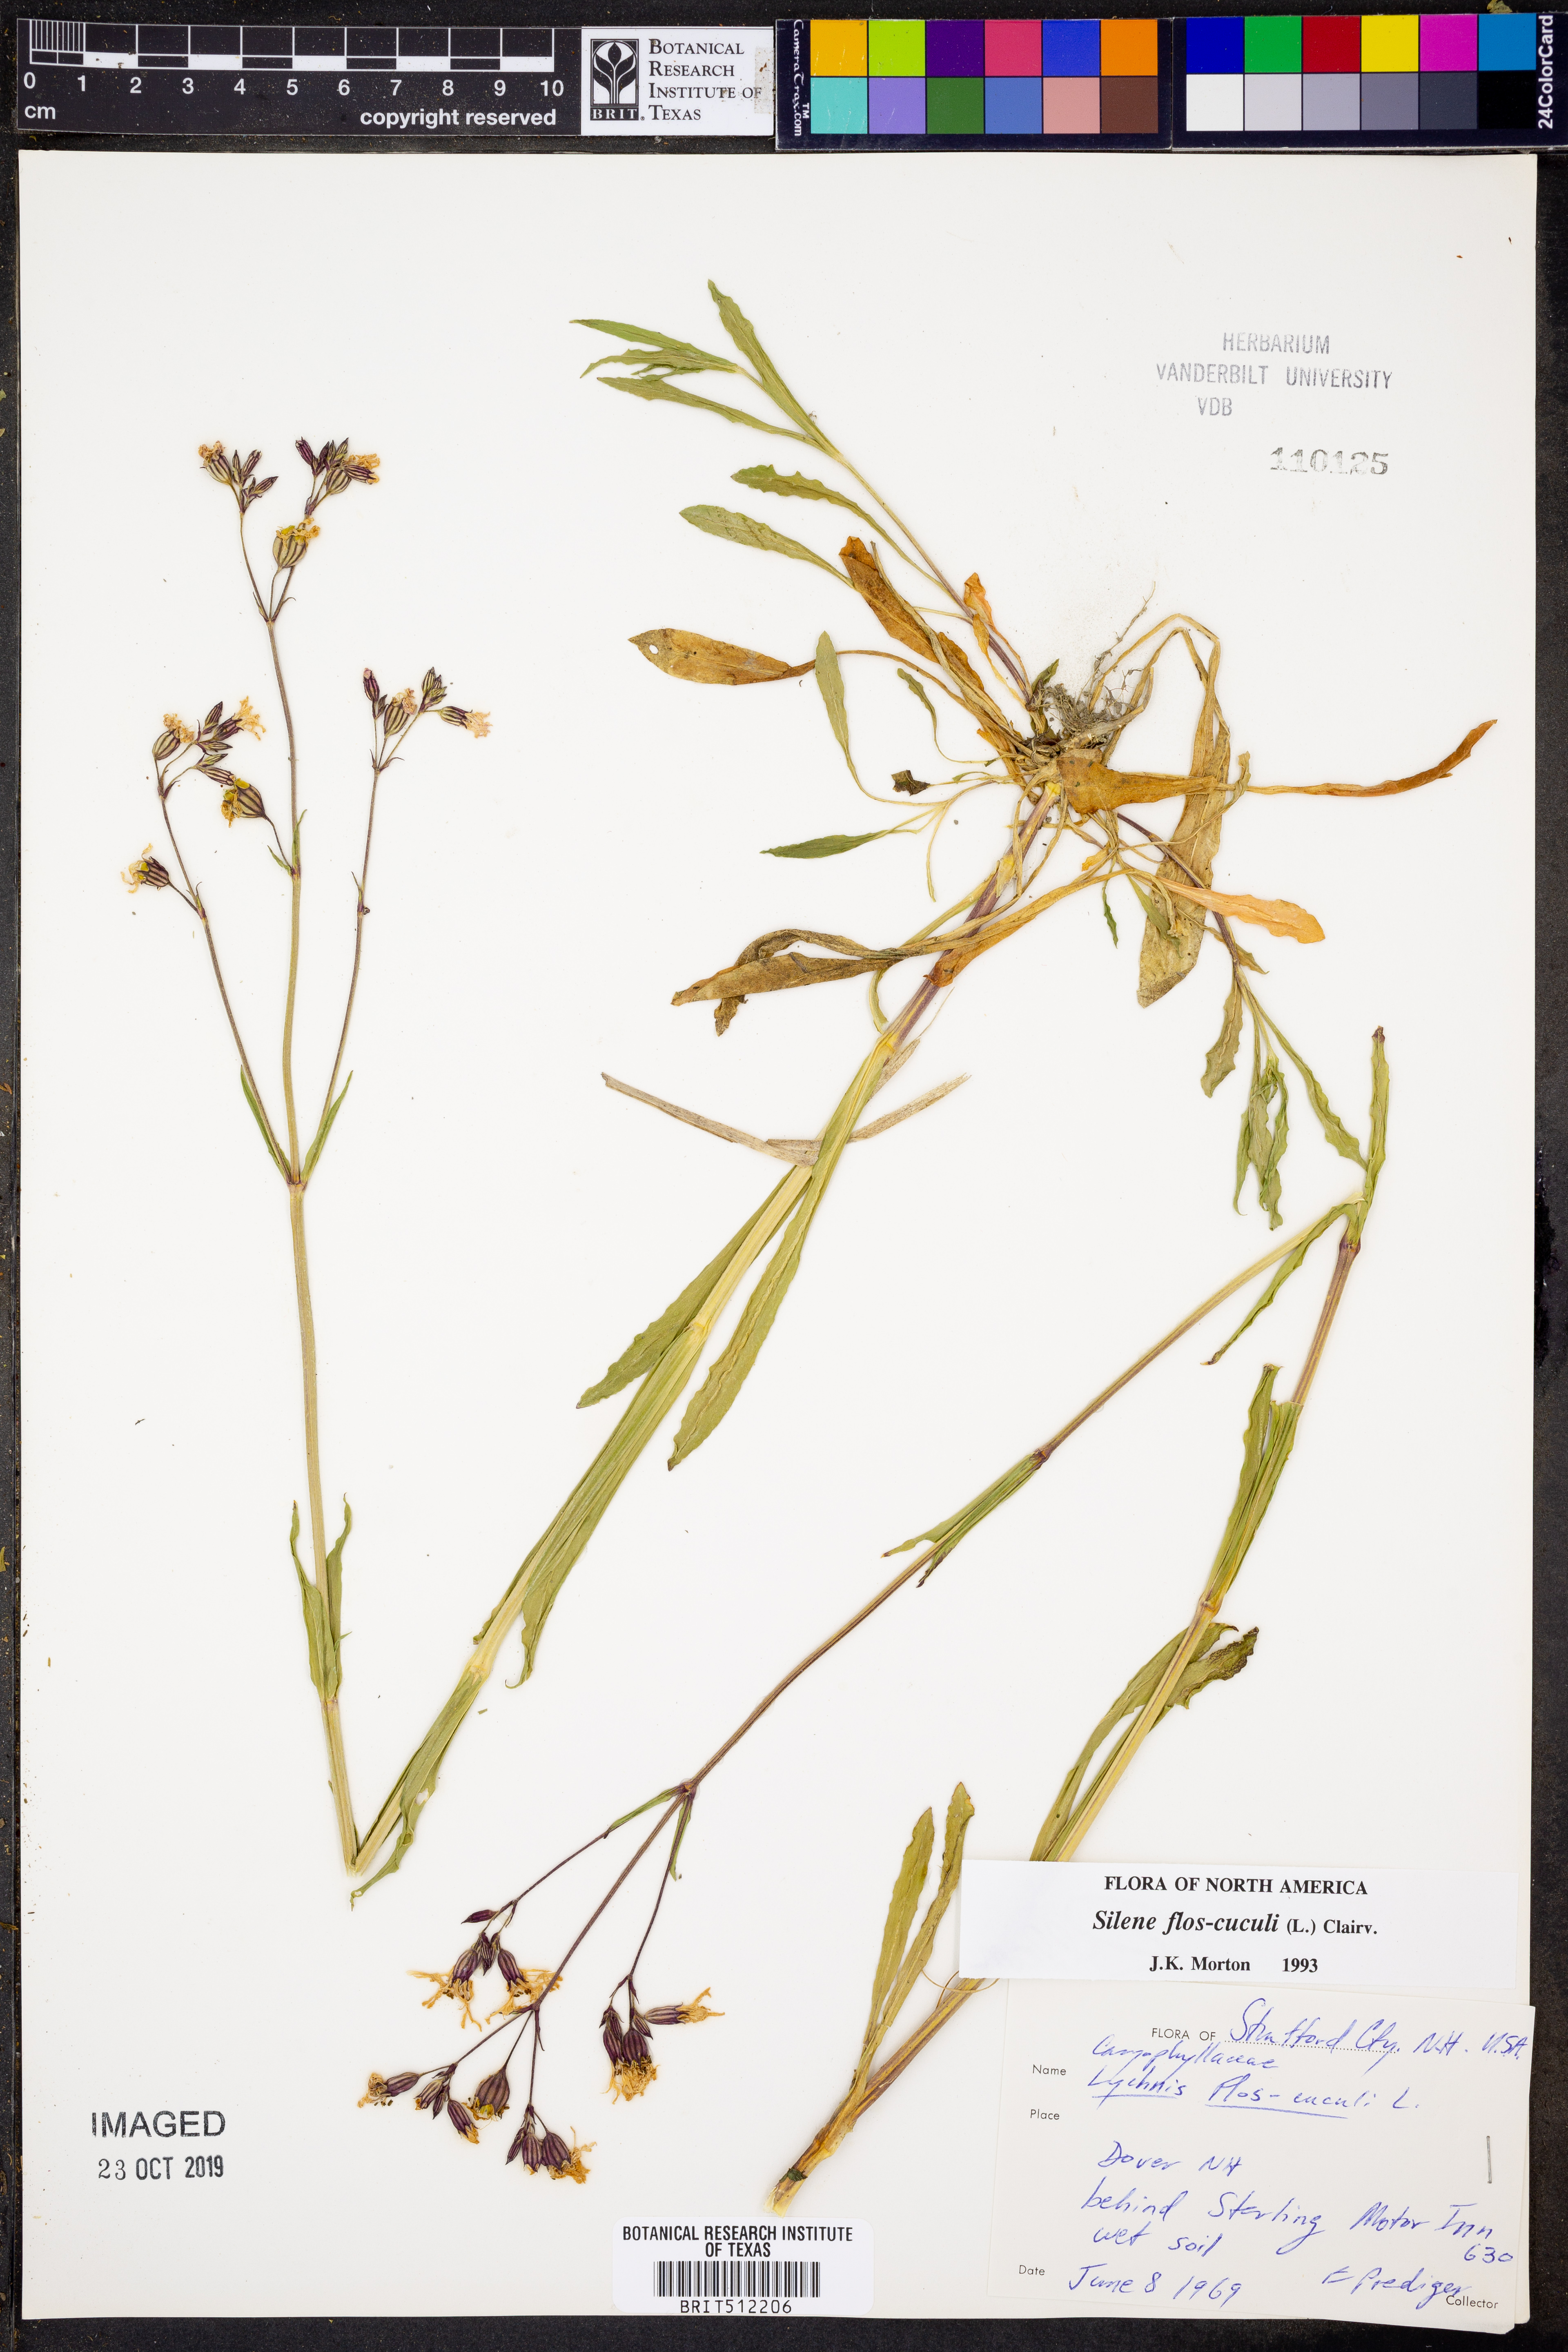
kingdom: Plantae
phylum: Tracheophyta
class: Magnoliopsida
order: Caryophyllales
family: Caryophyllaceae
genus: Silene
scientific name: Silene flos-cuculi
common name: Ragged-robin
